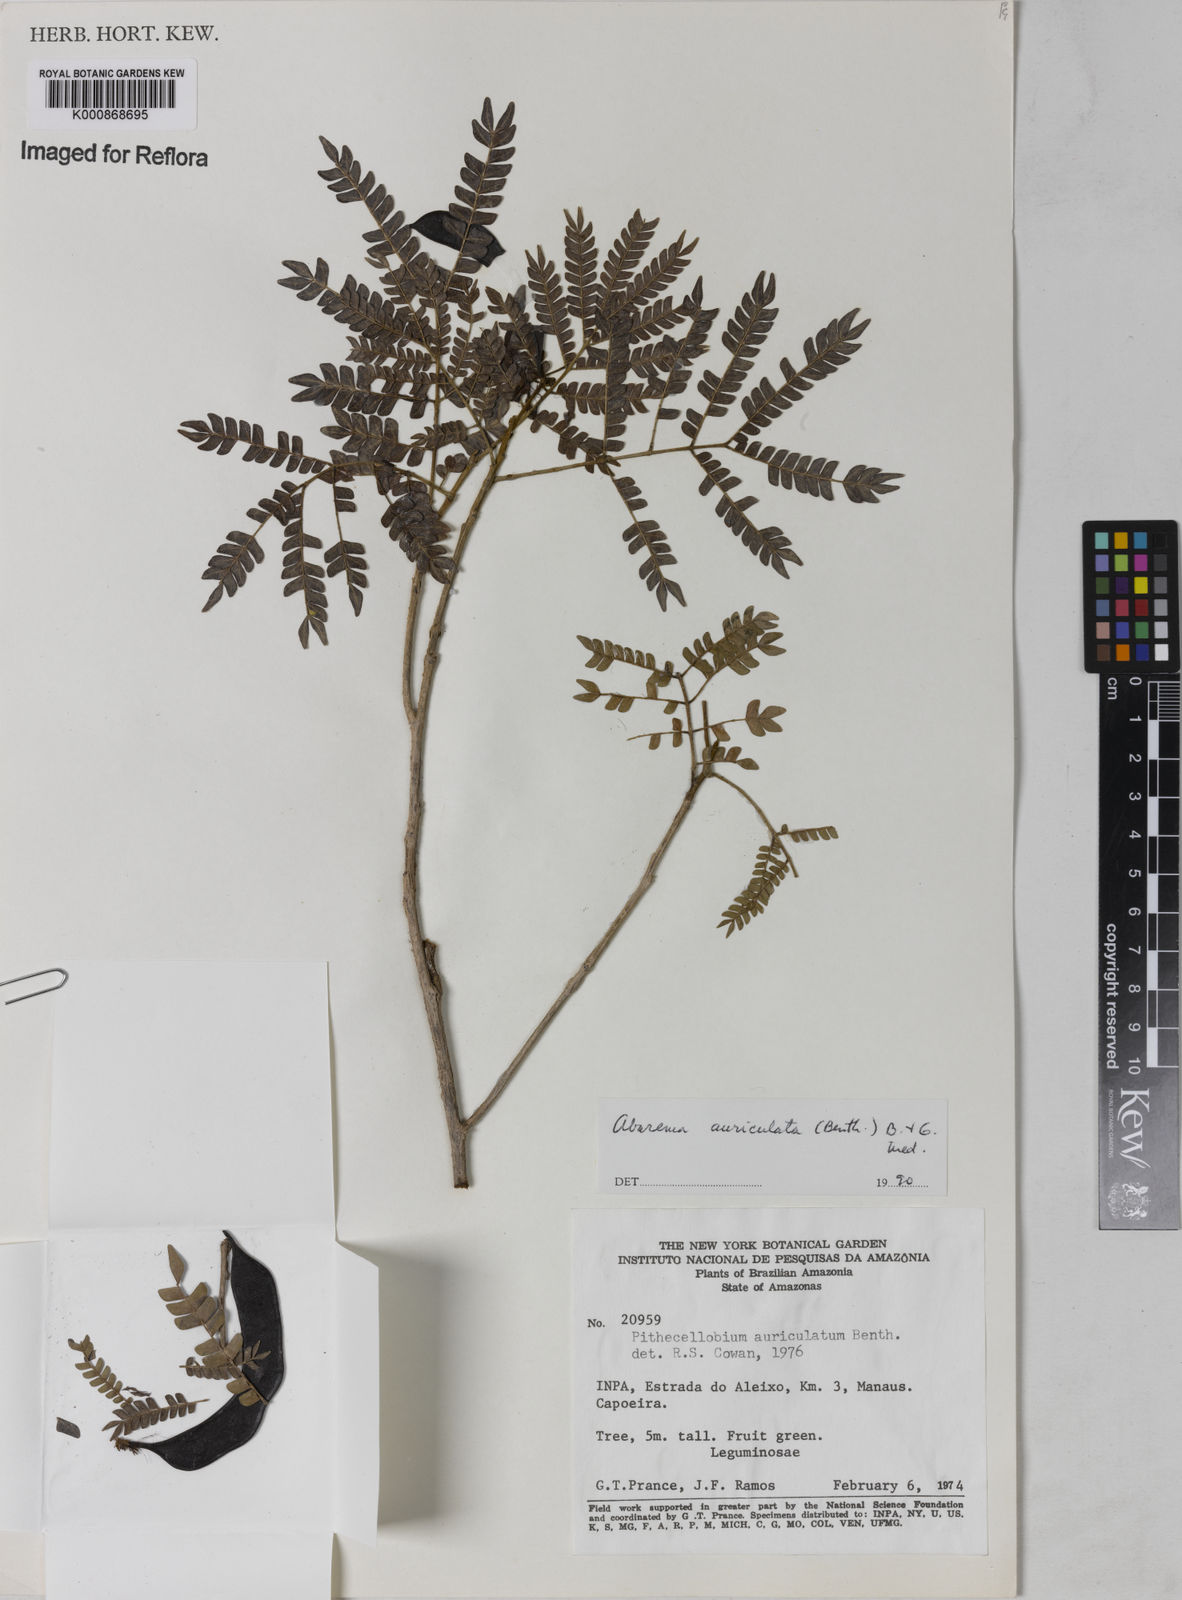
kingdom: Plantae
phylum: Tracheophyta
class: Magnoliopsida
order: Fabales
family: Fabaceae
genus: Jupunba
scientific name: Jupunba auriculata
